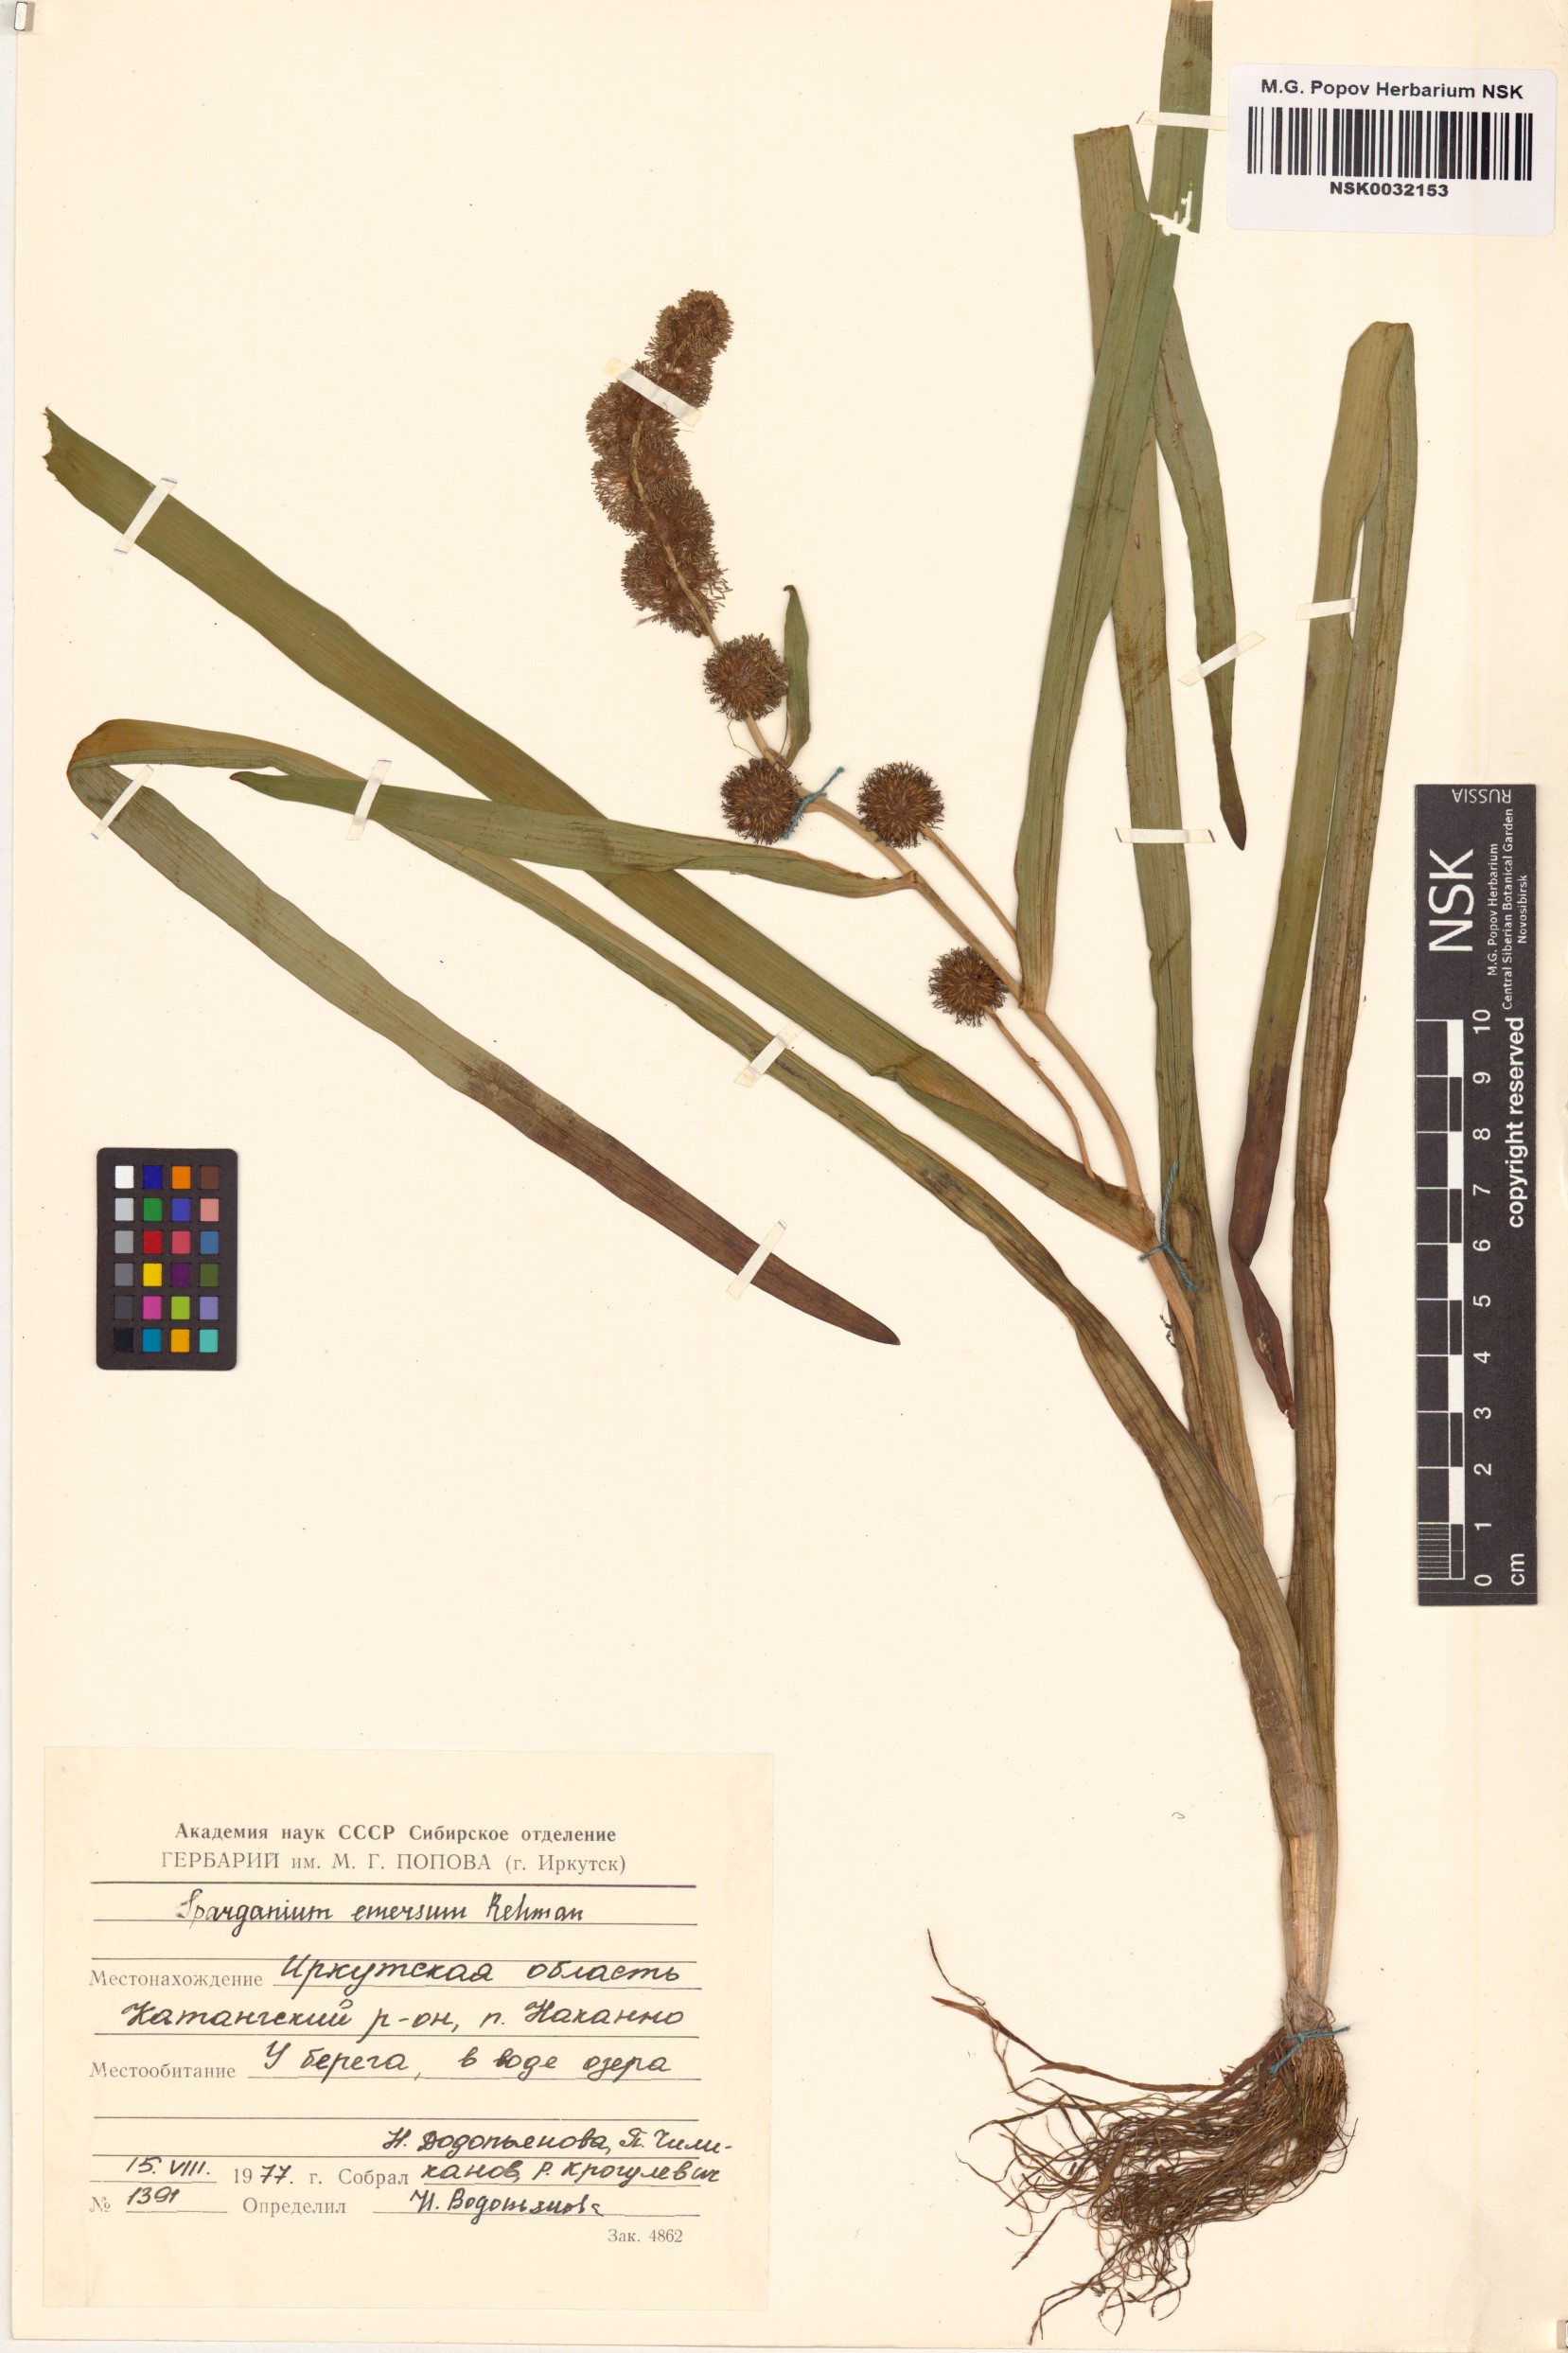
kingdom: Plantae
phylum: Tracheophyta
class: Liliopsida
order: Poales
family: Typhaceae
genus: Sparganium
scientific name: Sparganium emersum
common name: Unbranched bur-reed
